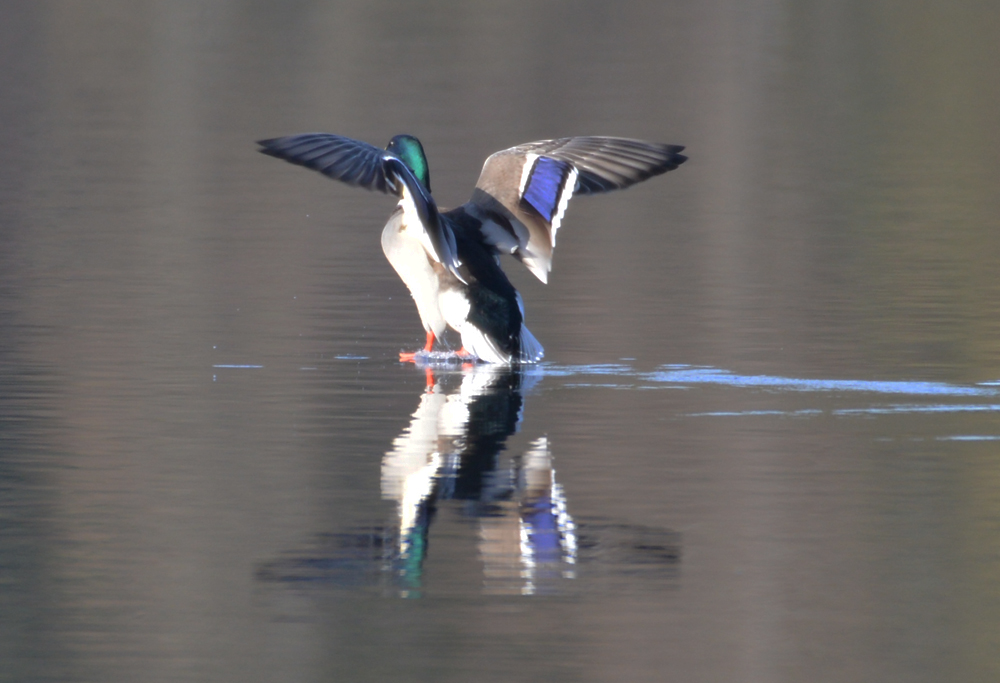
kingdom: Animalia
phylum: Chordata
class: Aves
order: Anseriformes
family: Anatidae
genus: Anas
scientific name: Anas platyrhynchos
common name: Mallard
